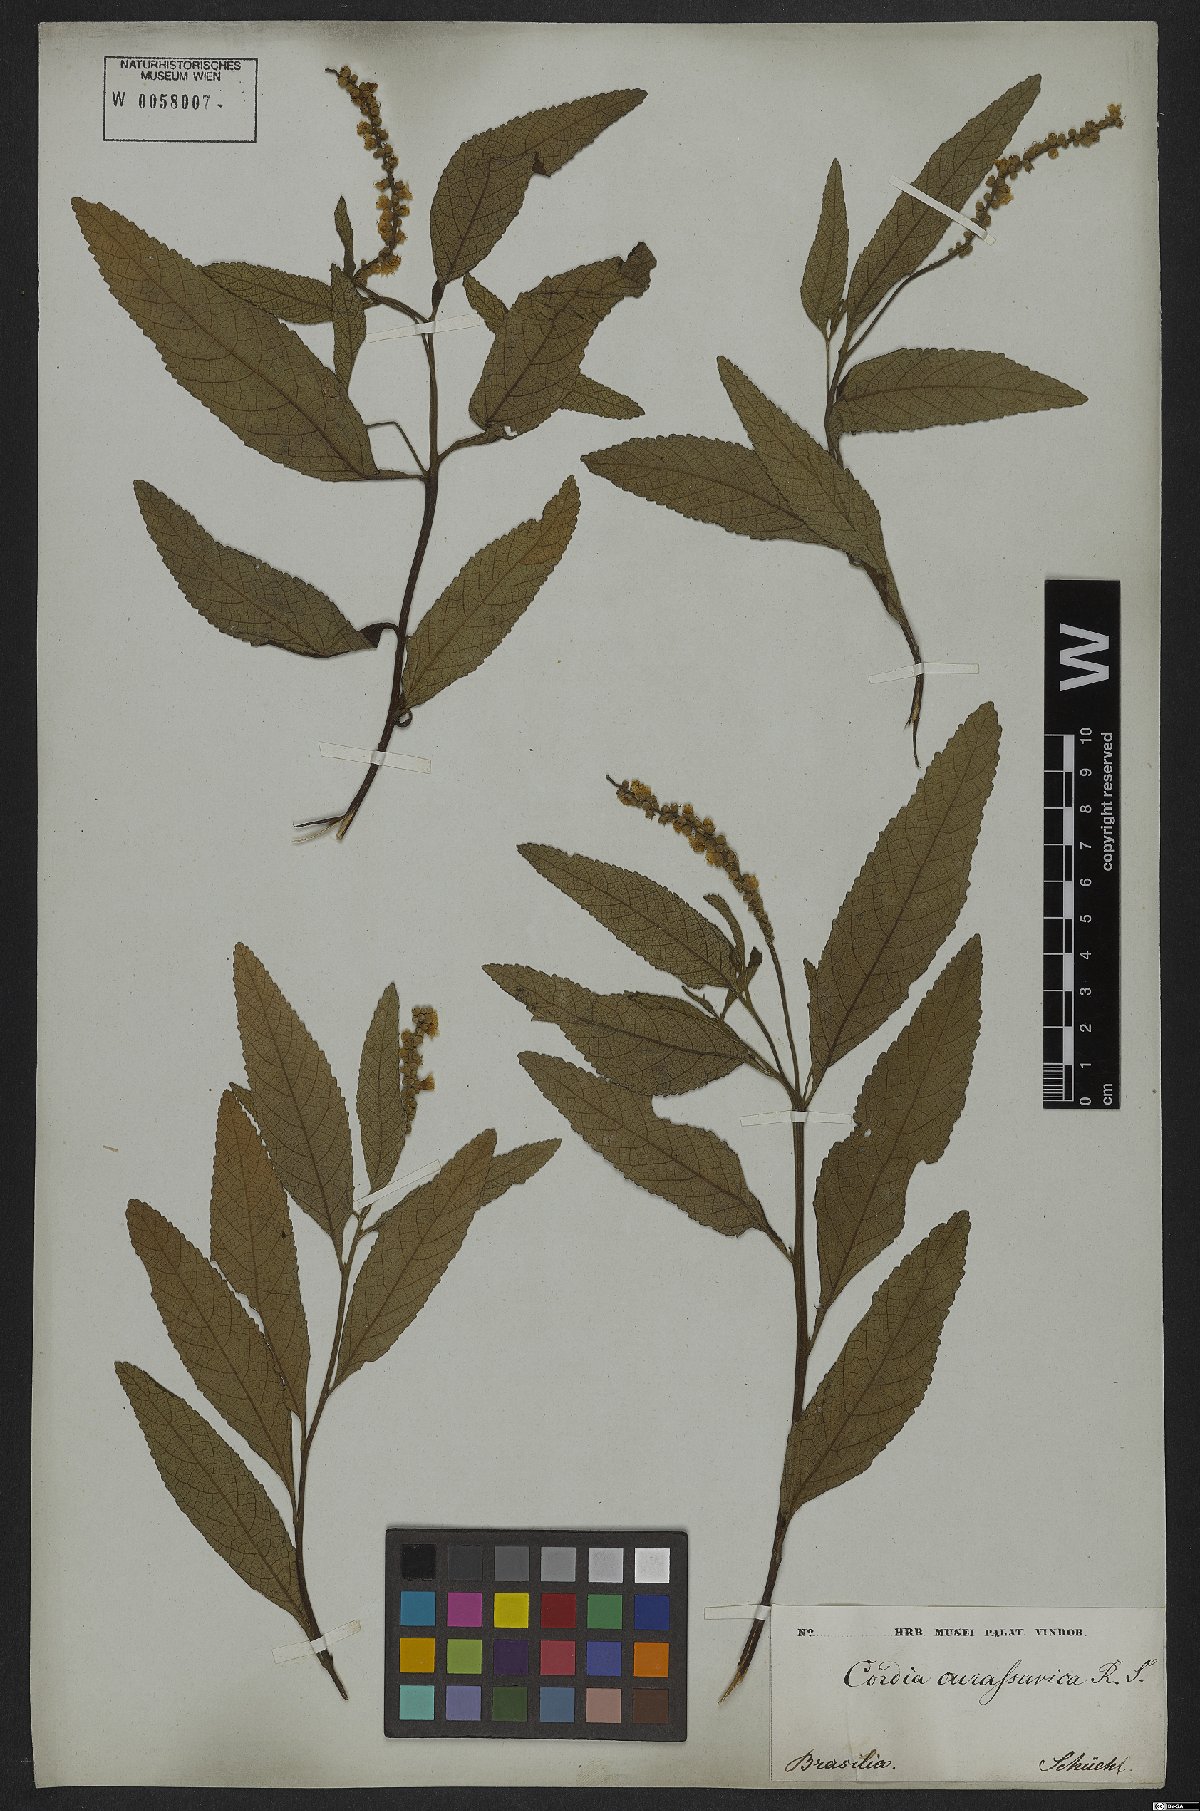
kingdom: Plantae
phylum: Tracheophyta
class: Magnoliopsida
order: Boraginales
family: Cordiaceae
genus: Varronia
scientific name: Varronia curassavica
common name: Black sage
